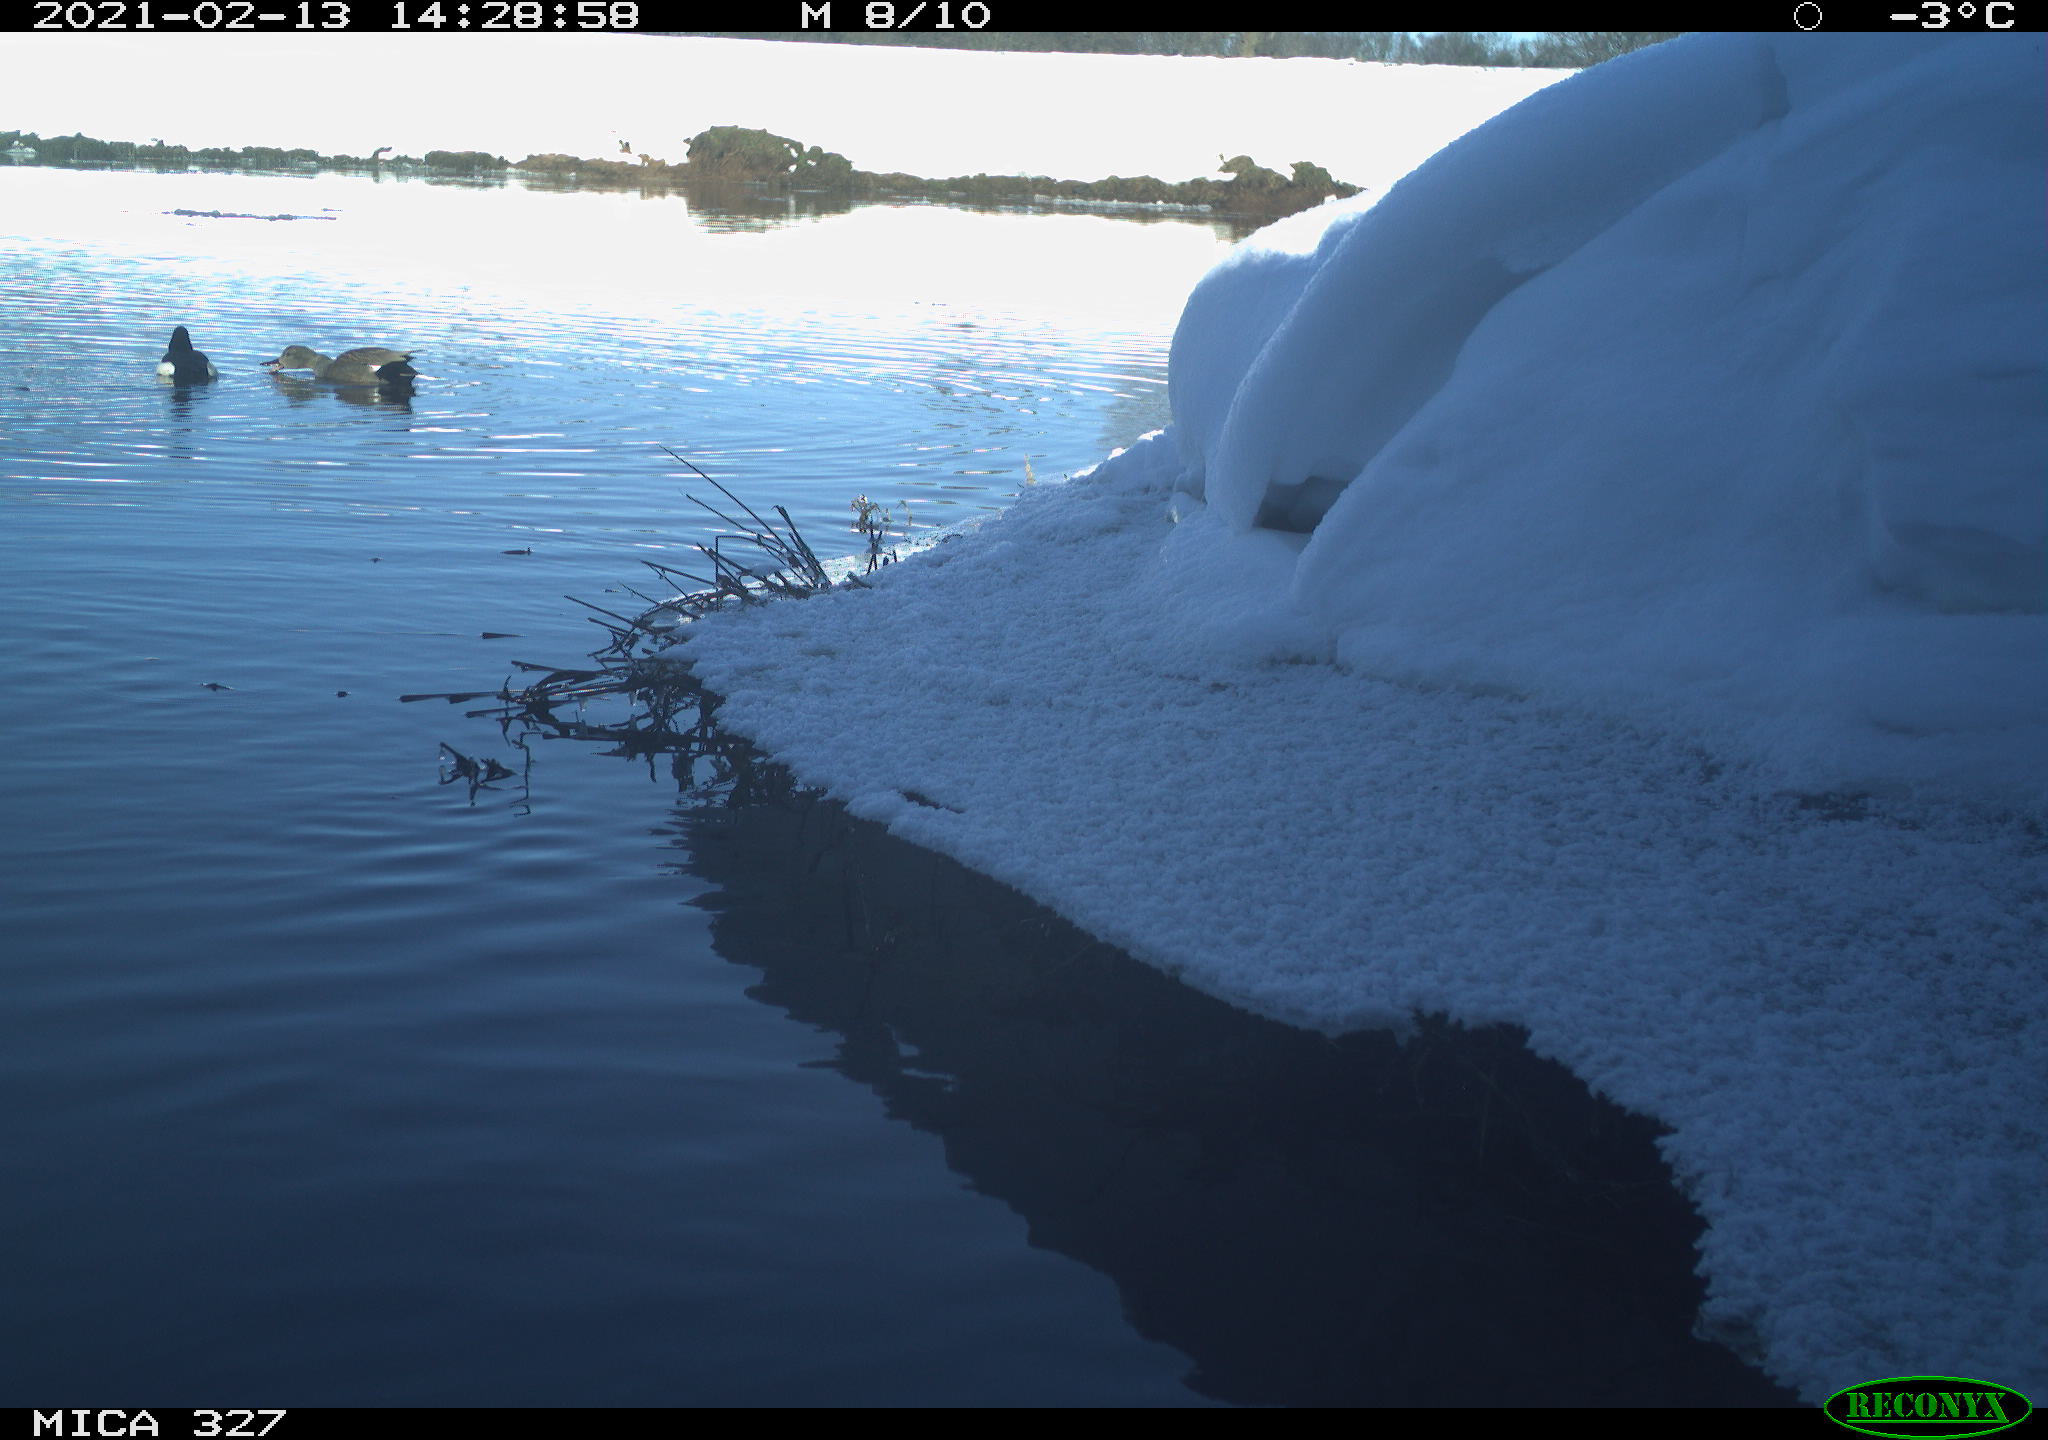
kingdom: Animalia
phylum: Chordata
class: Aves
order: Anseriformes
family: Anatidae
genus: Anas
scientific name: Anas
